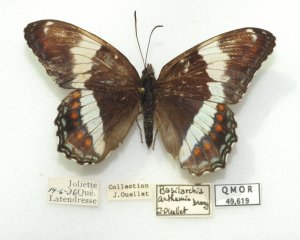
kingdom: Animalia
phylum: Arthropoda
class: Insecta
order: Lepidoptera
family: Nymphalidae
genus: Limenitis
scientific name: Limenitis arthemis
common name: Red-spotted Admiral
